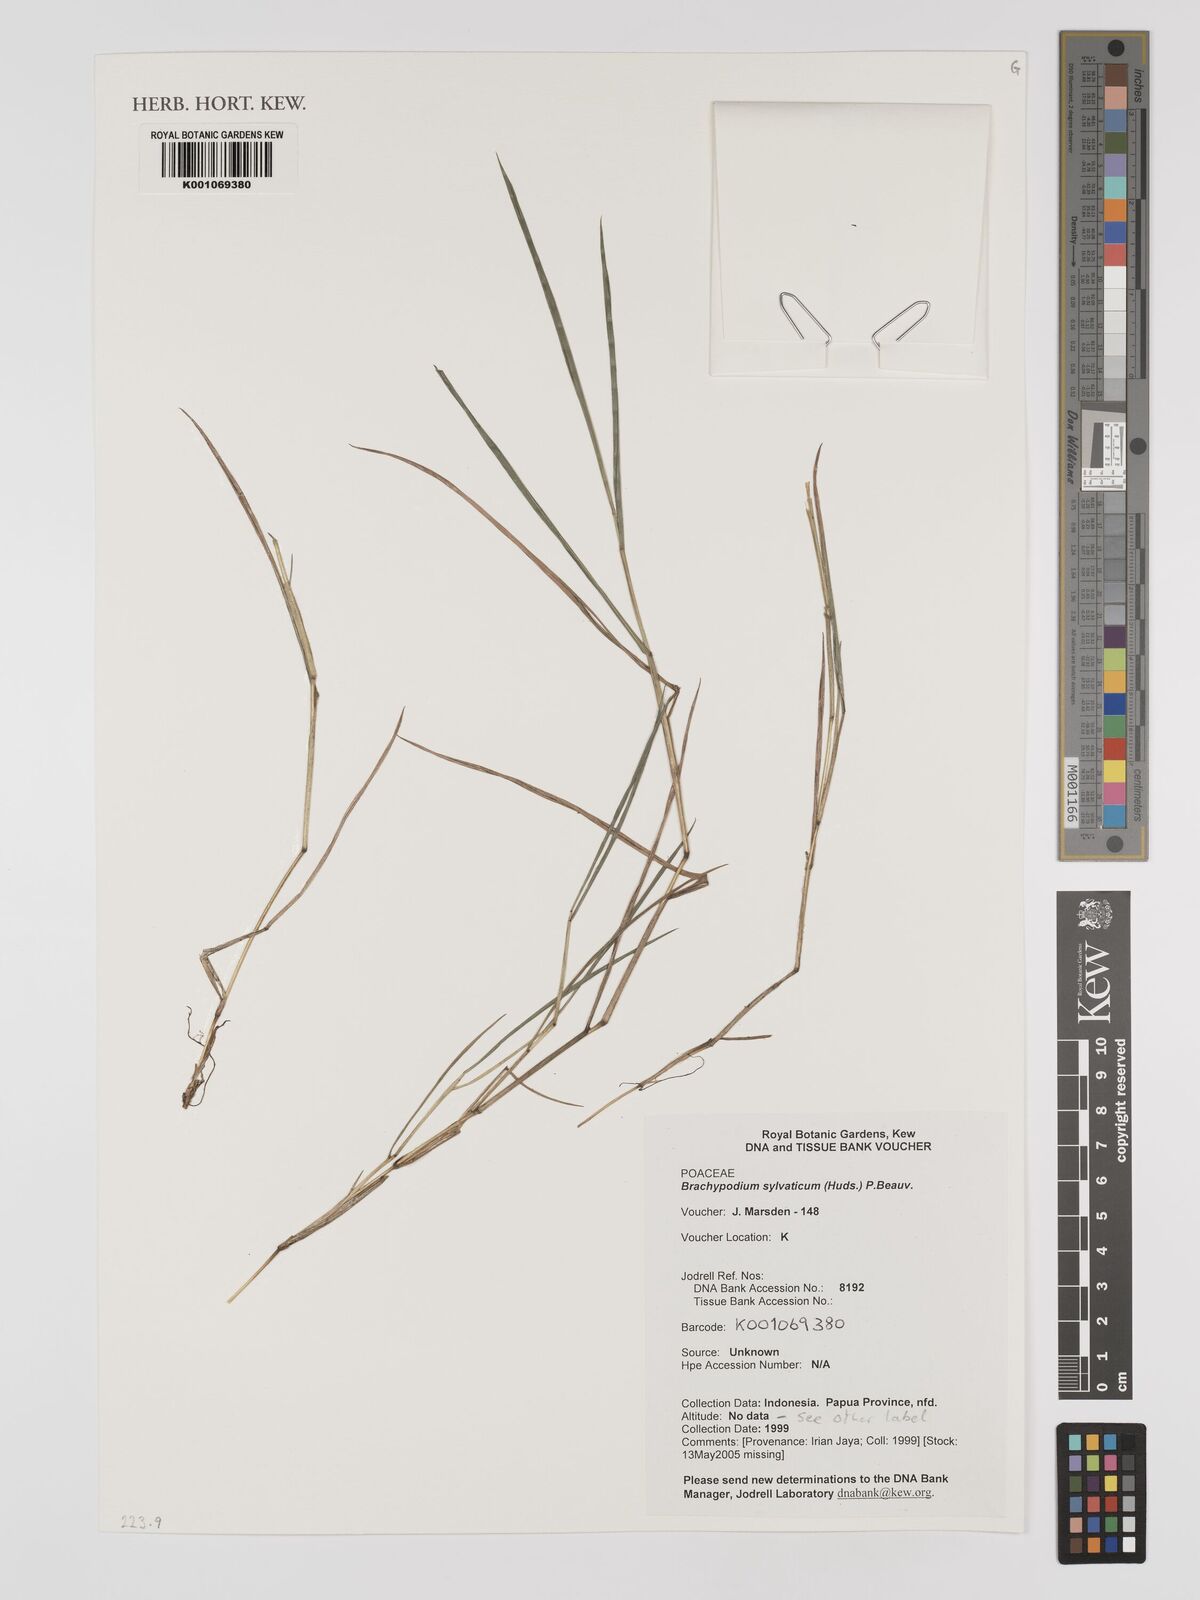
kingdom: Plantae
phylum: Tracheophyta
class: Liliopsida
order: Poales
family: Poaceae
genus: Brachypodium
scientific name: Brachypodium sylvaticum
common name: False-brome
